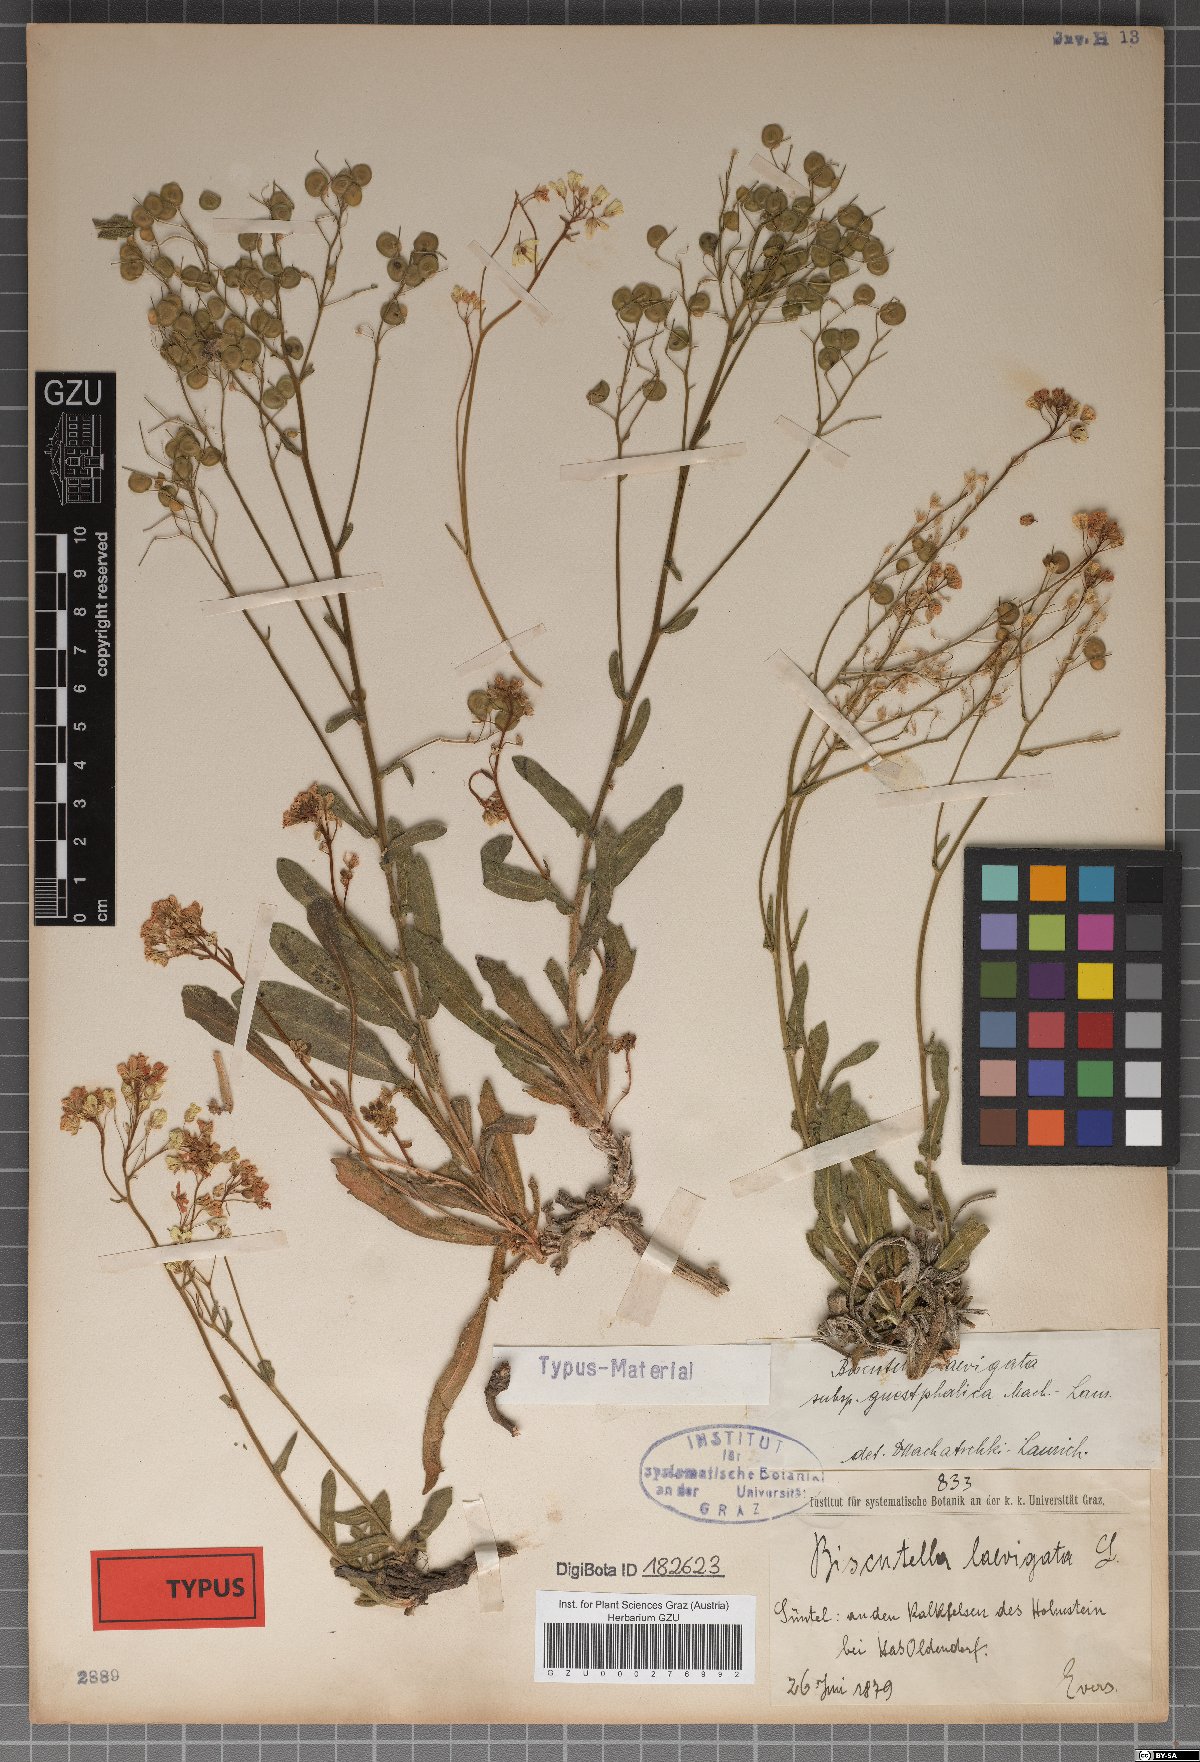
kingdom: Plantae
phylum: Tracheophyta
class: Magnoliopsida
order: Brassicales
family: Brassicaceae
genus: Biscutella
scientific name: Biscutella laevigata
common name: Buckler mustard
